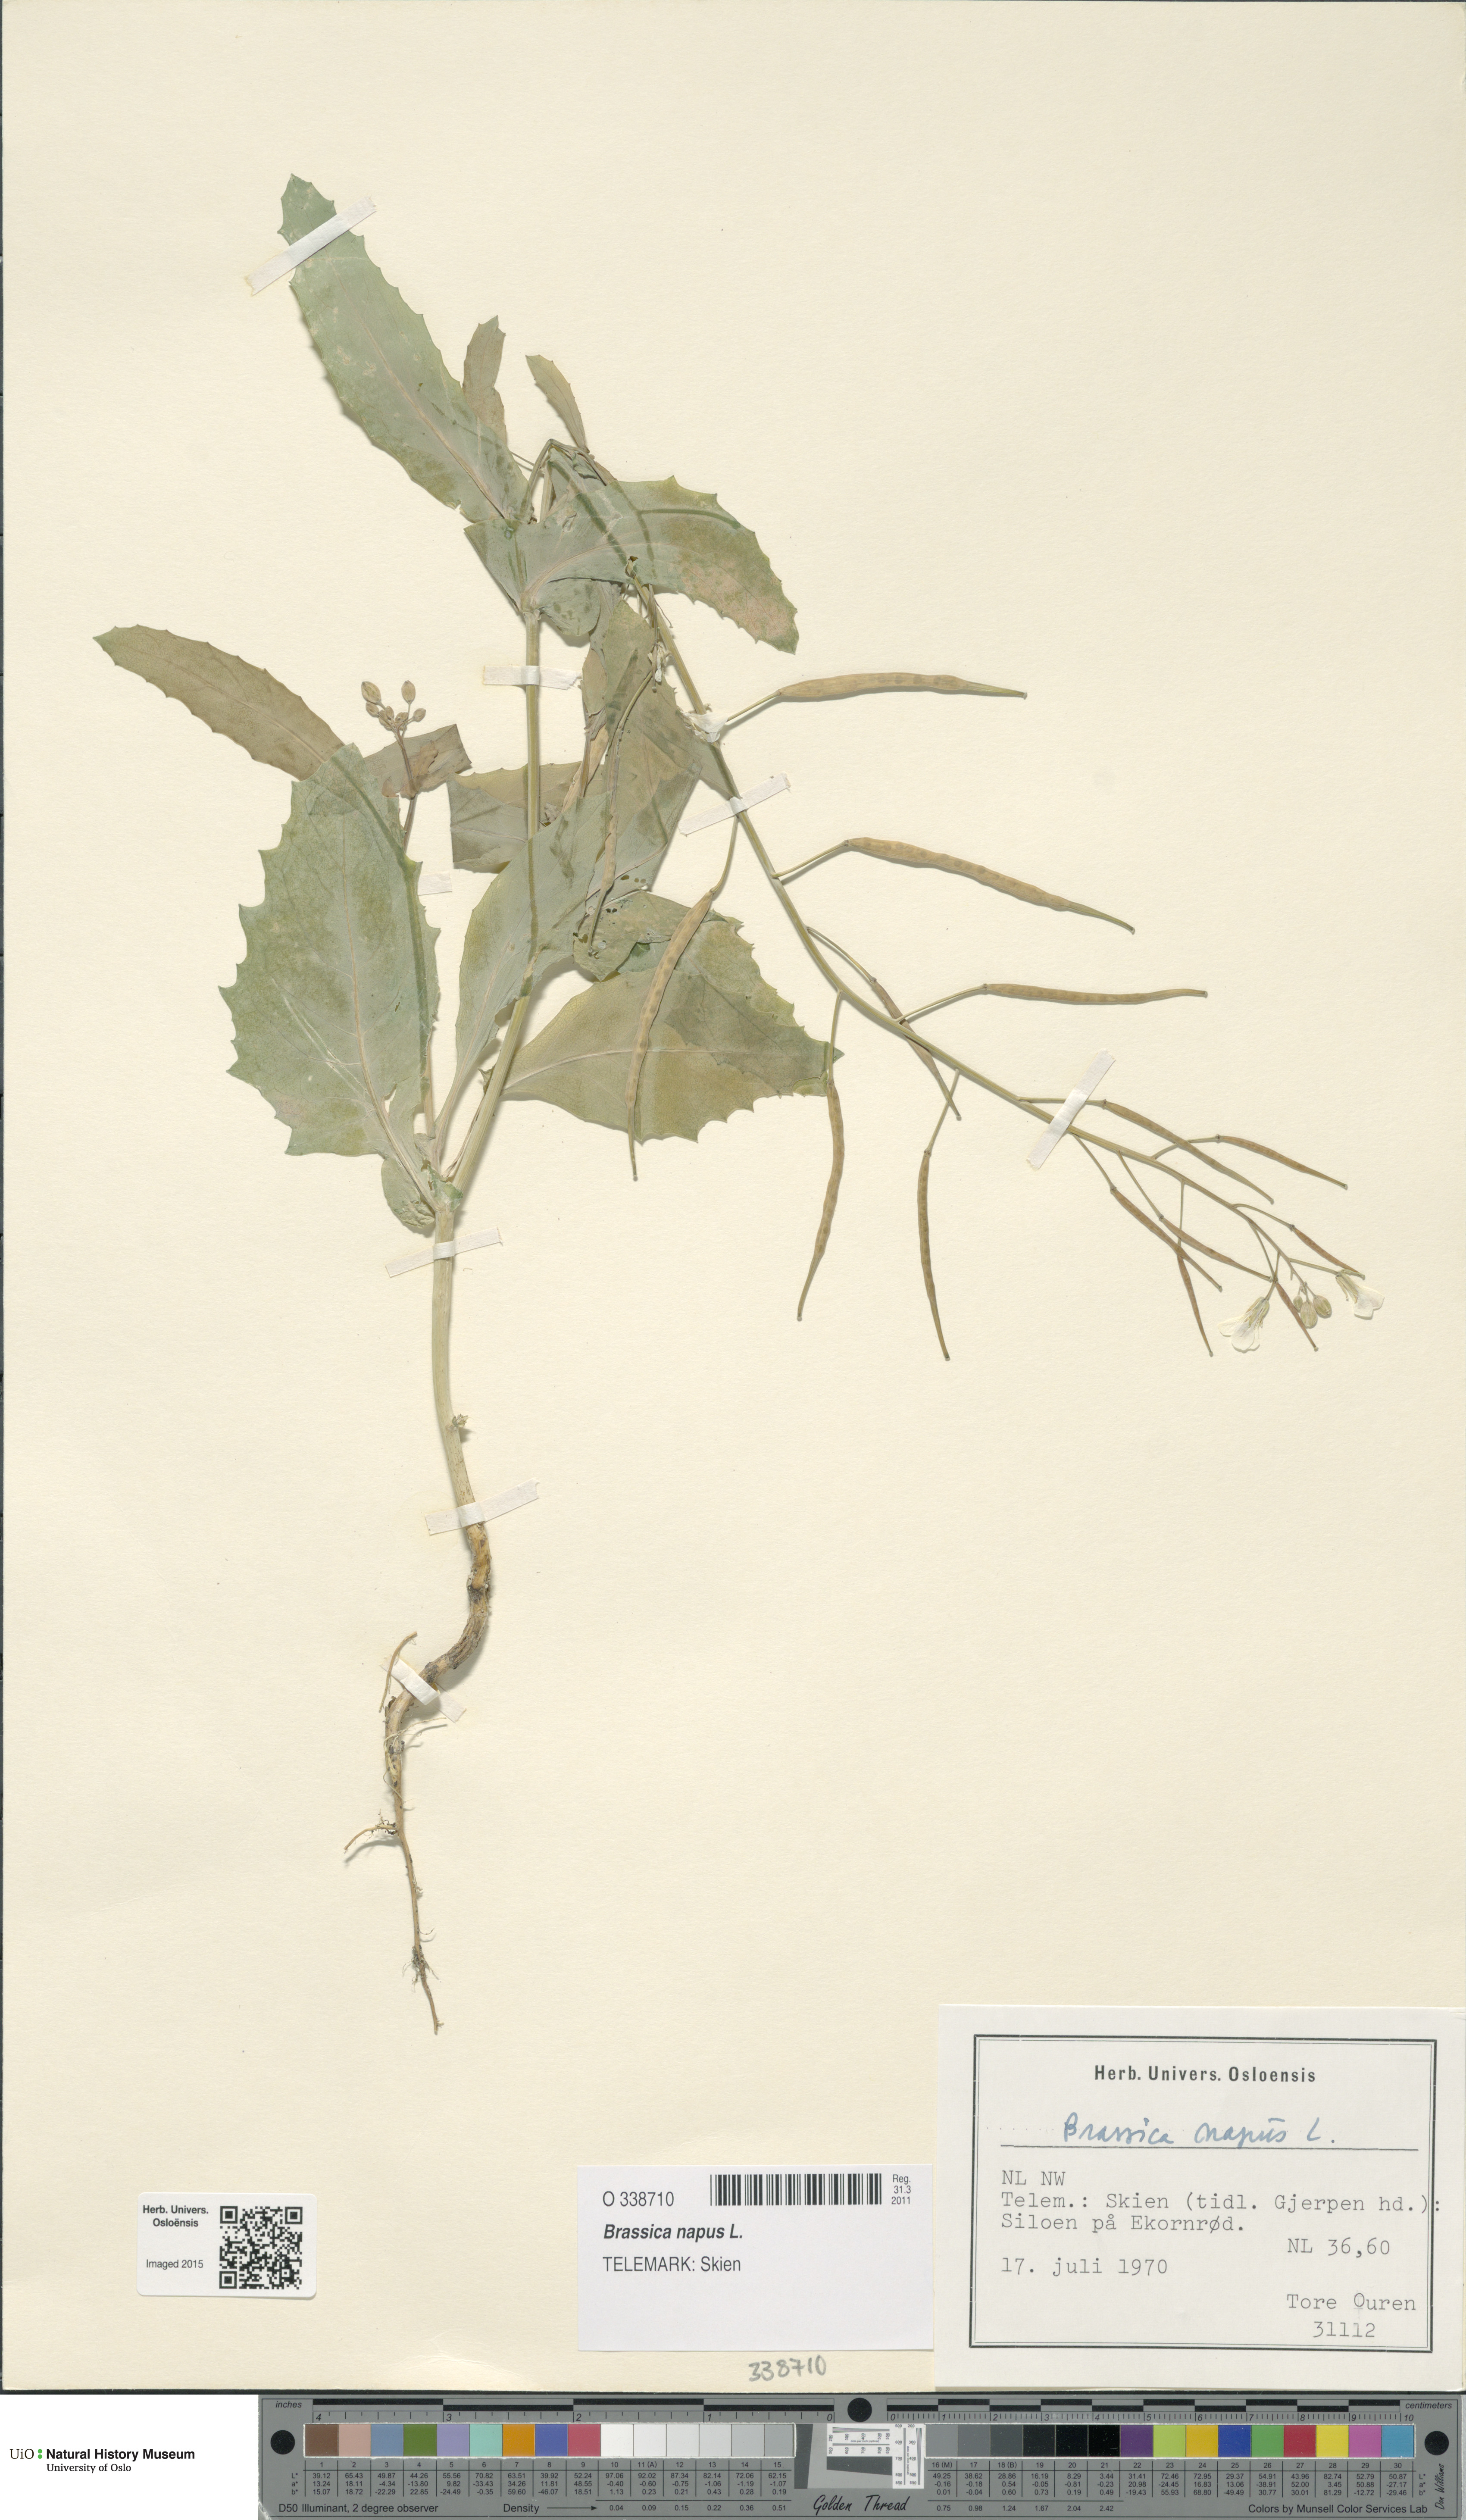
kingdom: Plantae
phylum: Tracheophyta
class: Magnoliopsida
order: Brassicales
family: Brassicaceae
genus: Brassica
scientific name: Brassica napus
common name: Rape
